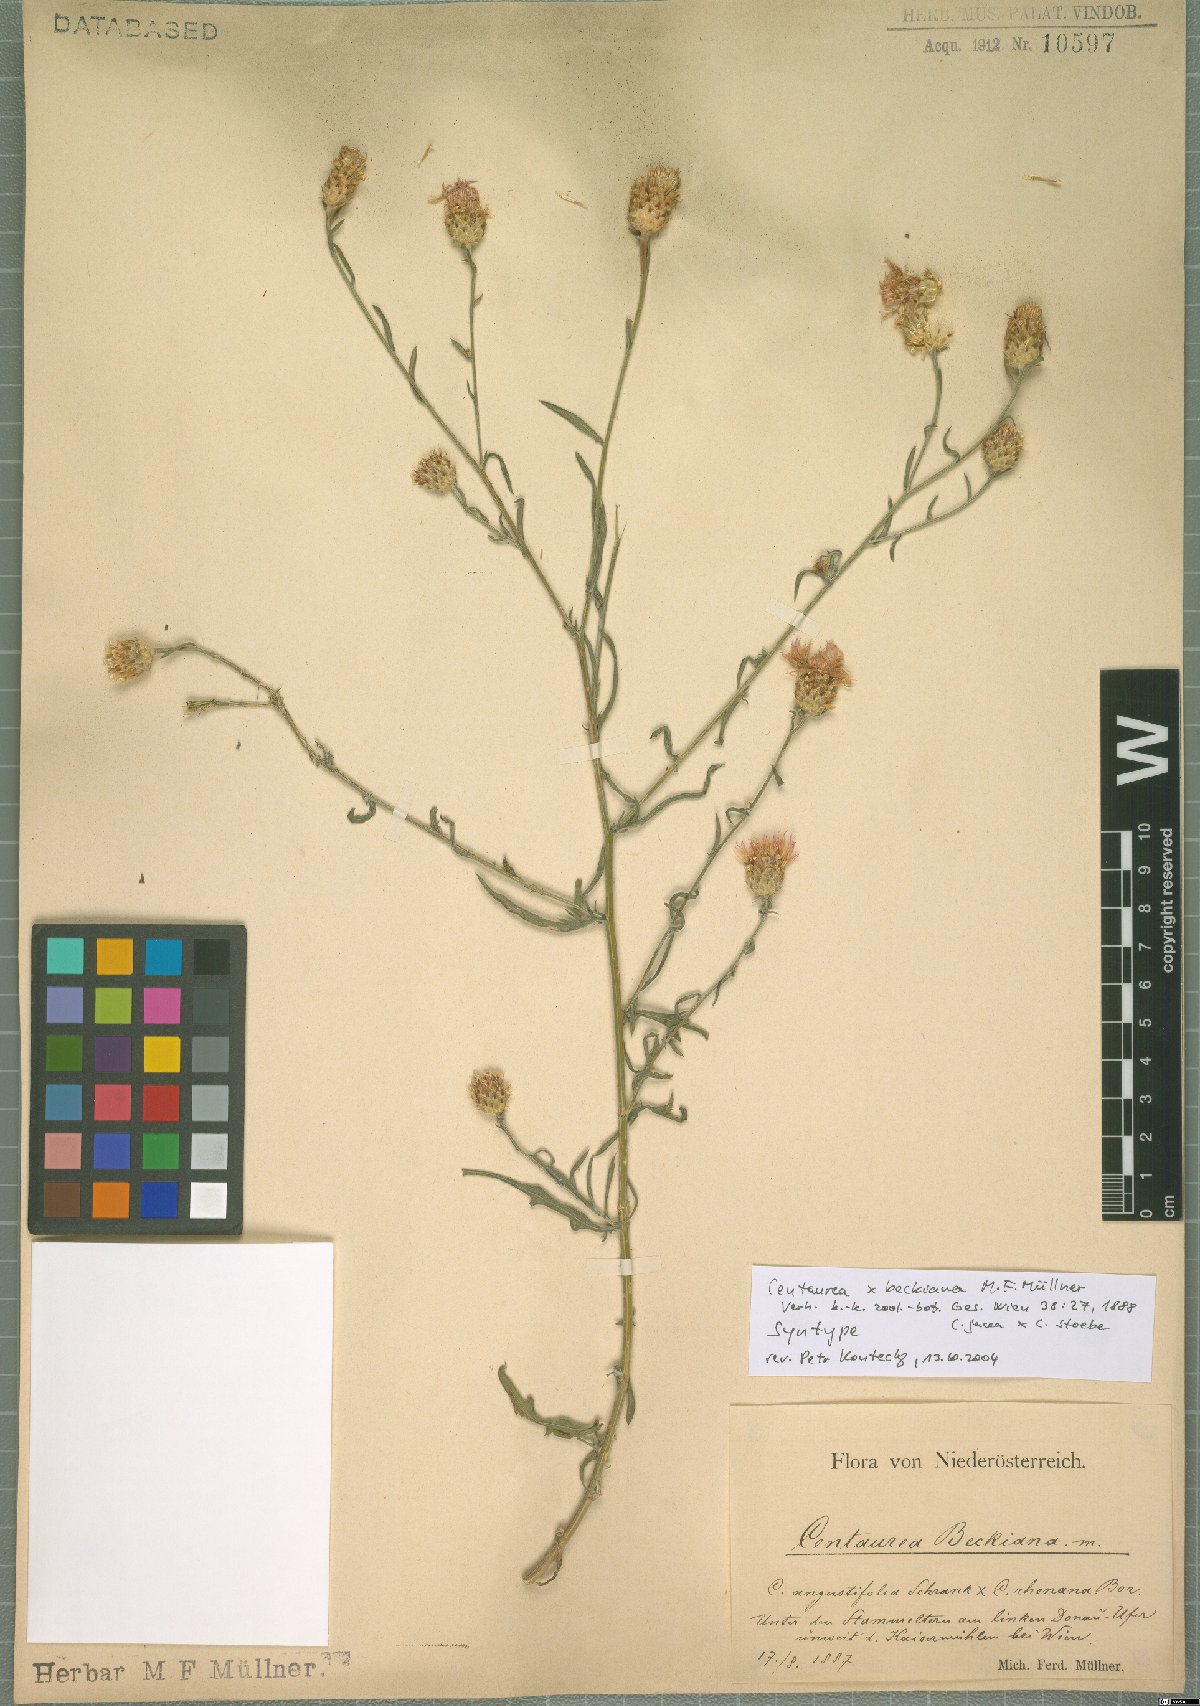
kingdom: Plantae
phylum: Tracheophyta
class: Magnoliopsida
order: Asterales
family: Asteraceae
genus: Centaurea
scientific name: Centaurea beckiana
